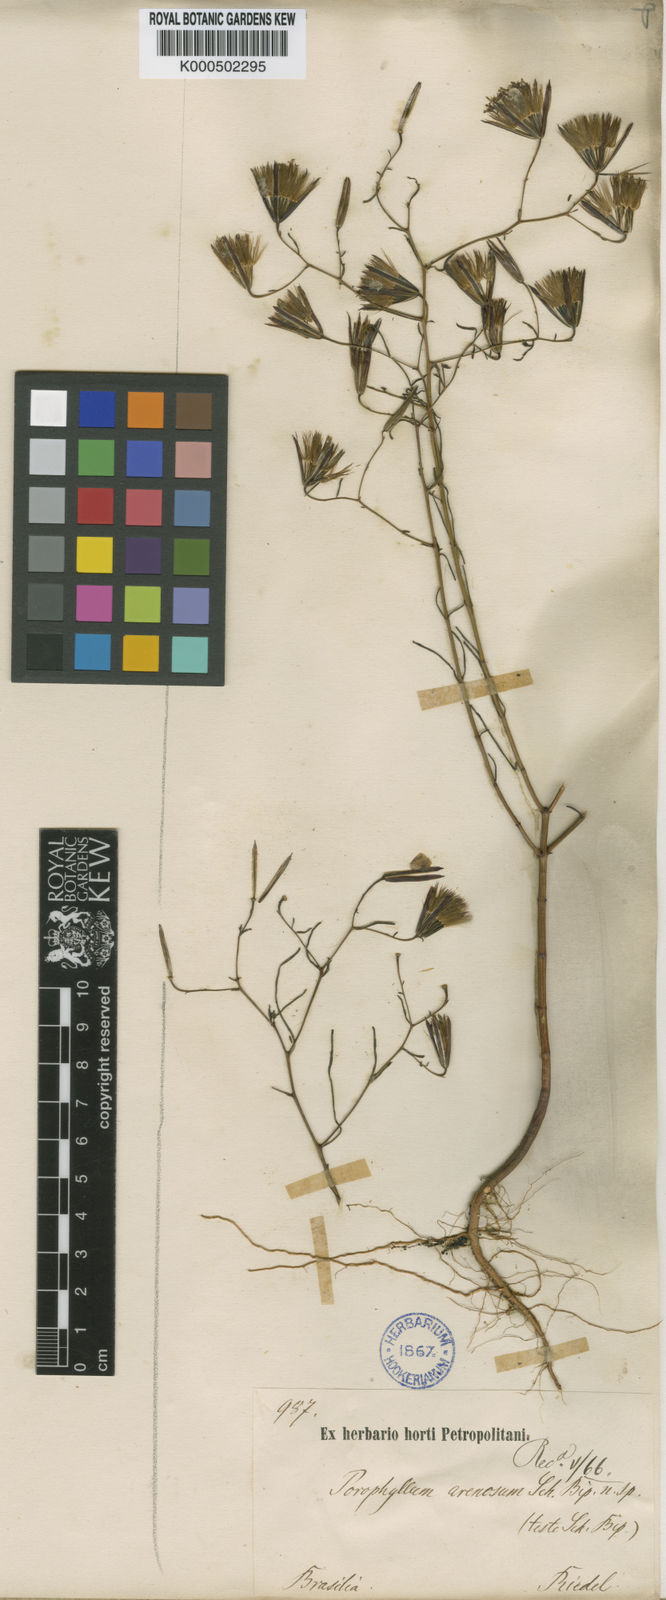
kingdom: Plantae
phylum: Tracheophyta
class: Magnoliopsida
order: Asterales
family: Asteraceae
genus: Porophyllum
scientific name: Porophyllum angustissimum
